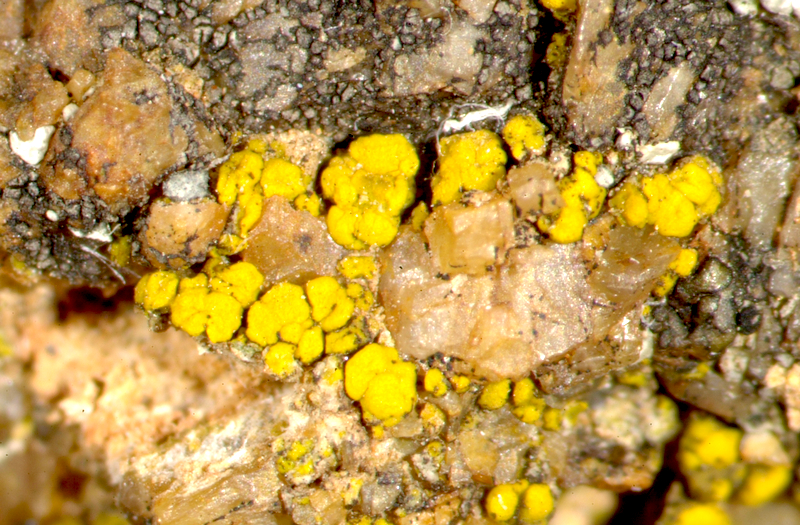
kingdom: Fungi
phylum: Ascomycota
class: Lecanoromycetes
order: Acarosporales
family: Acarosporaceae
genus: Acarospora
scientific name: Acarospora
